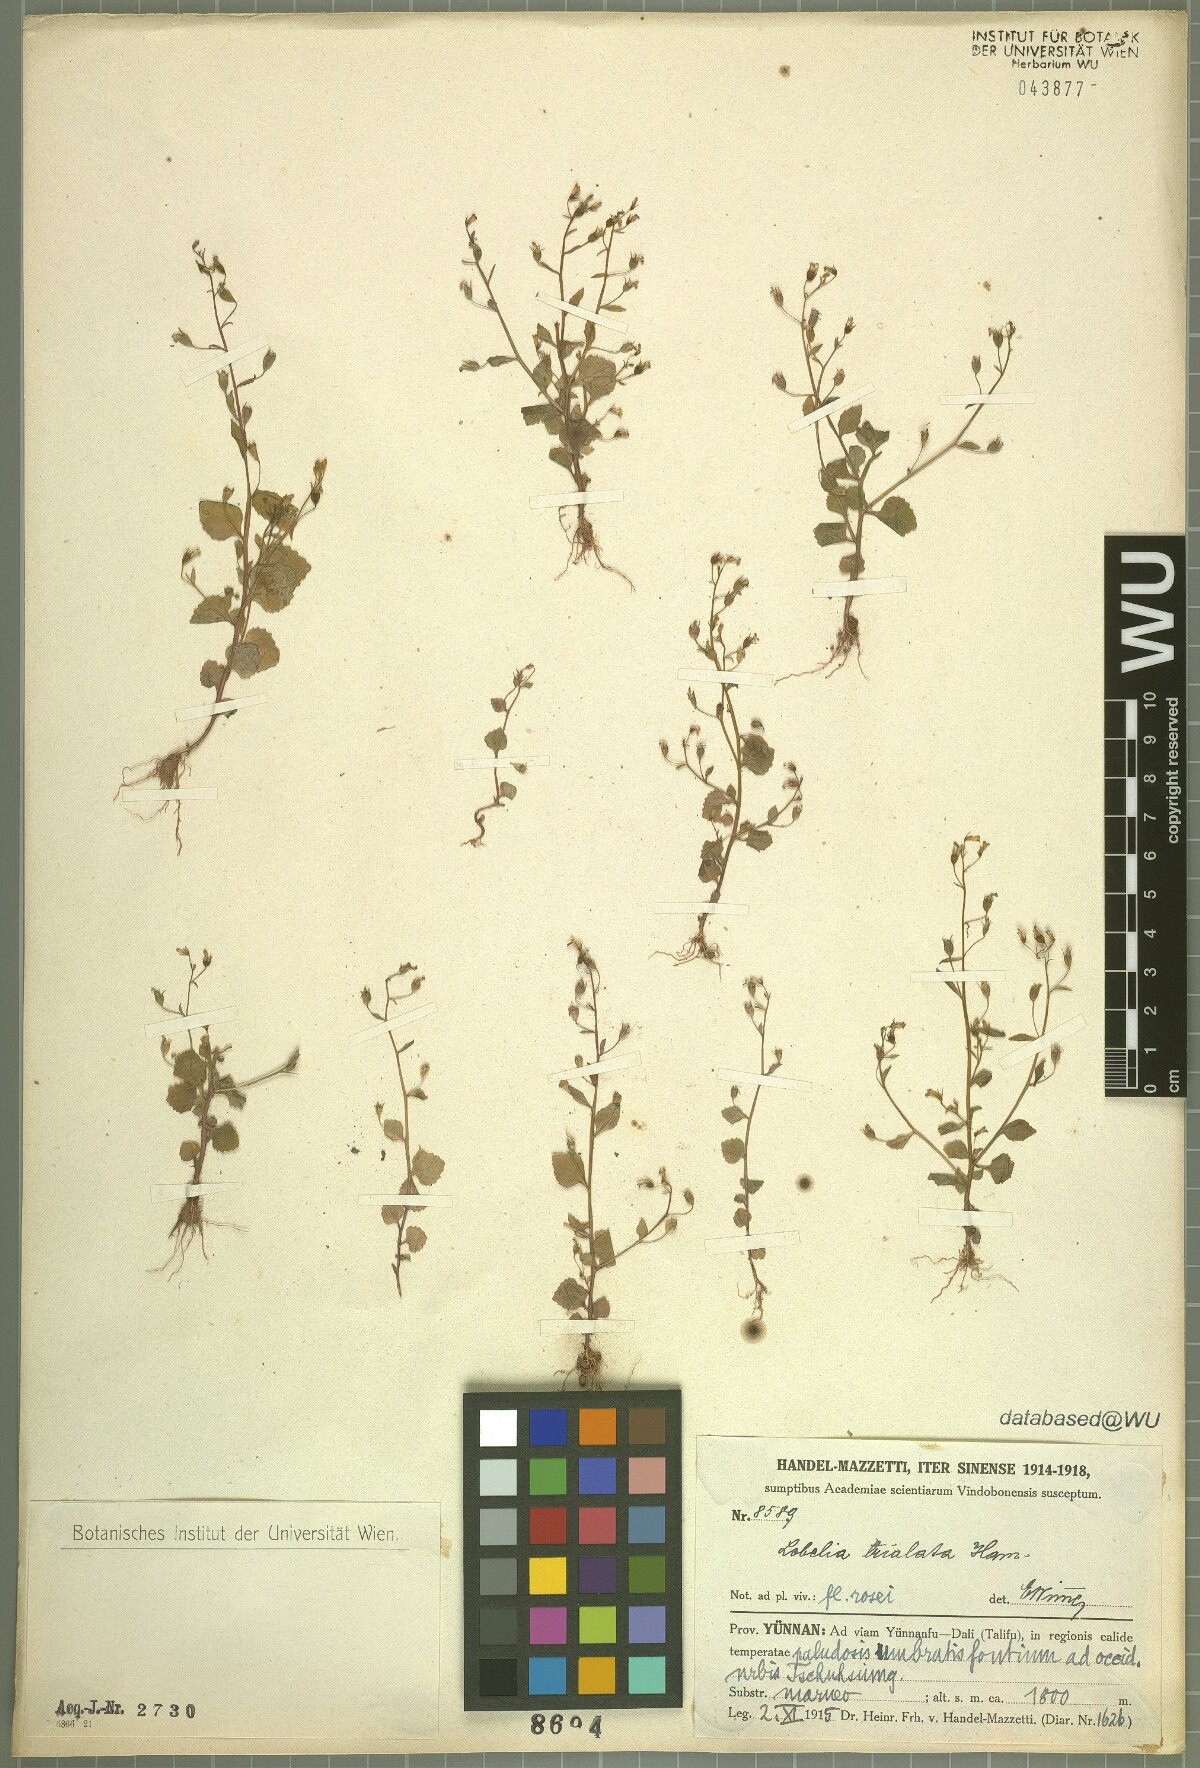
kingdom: Plantae
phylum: Tracheophyta
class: Magnoliopsida
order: Asterales
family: Campanulaceae
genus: Lobelia
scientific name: Lobelia trialata
